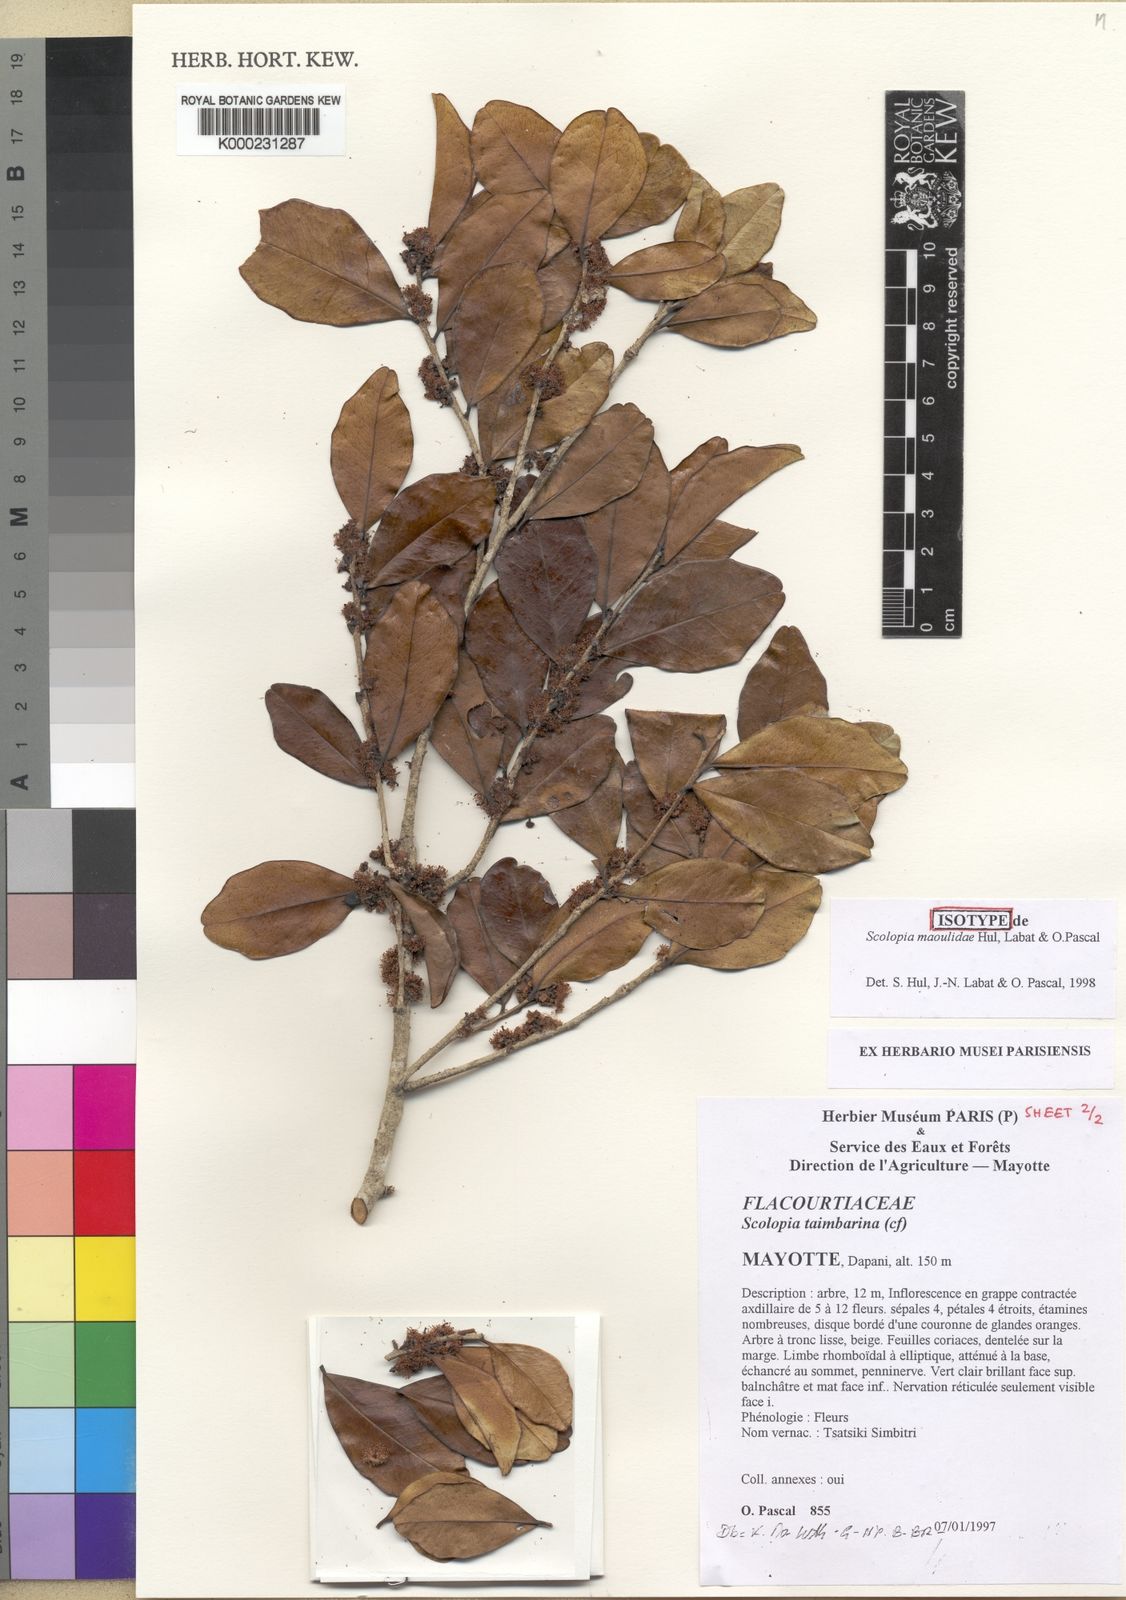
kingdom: Plantae
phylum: Tracheophyta
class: Magnoliopsida
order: Malpighiales
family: Salicaceae
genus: Scolopia
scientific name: Scolopia
